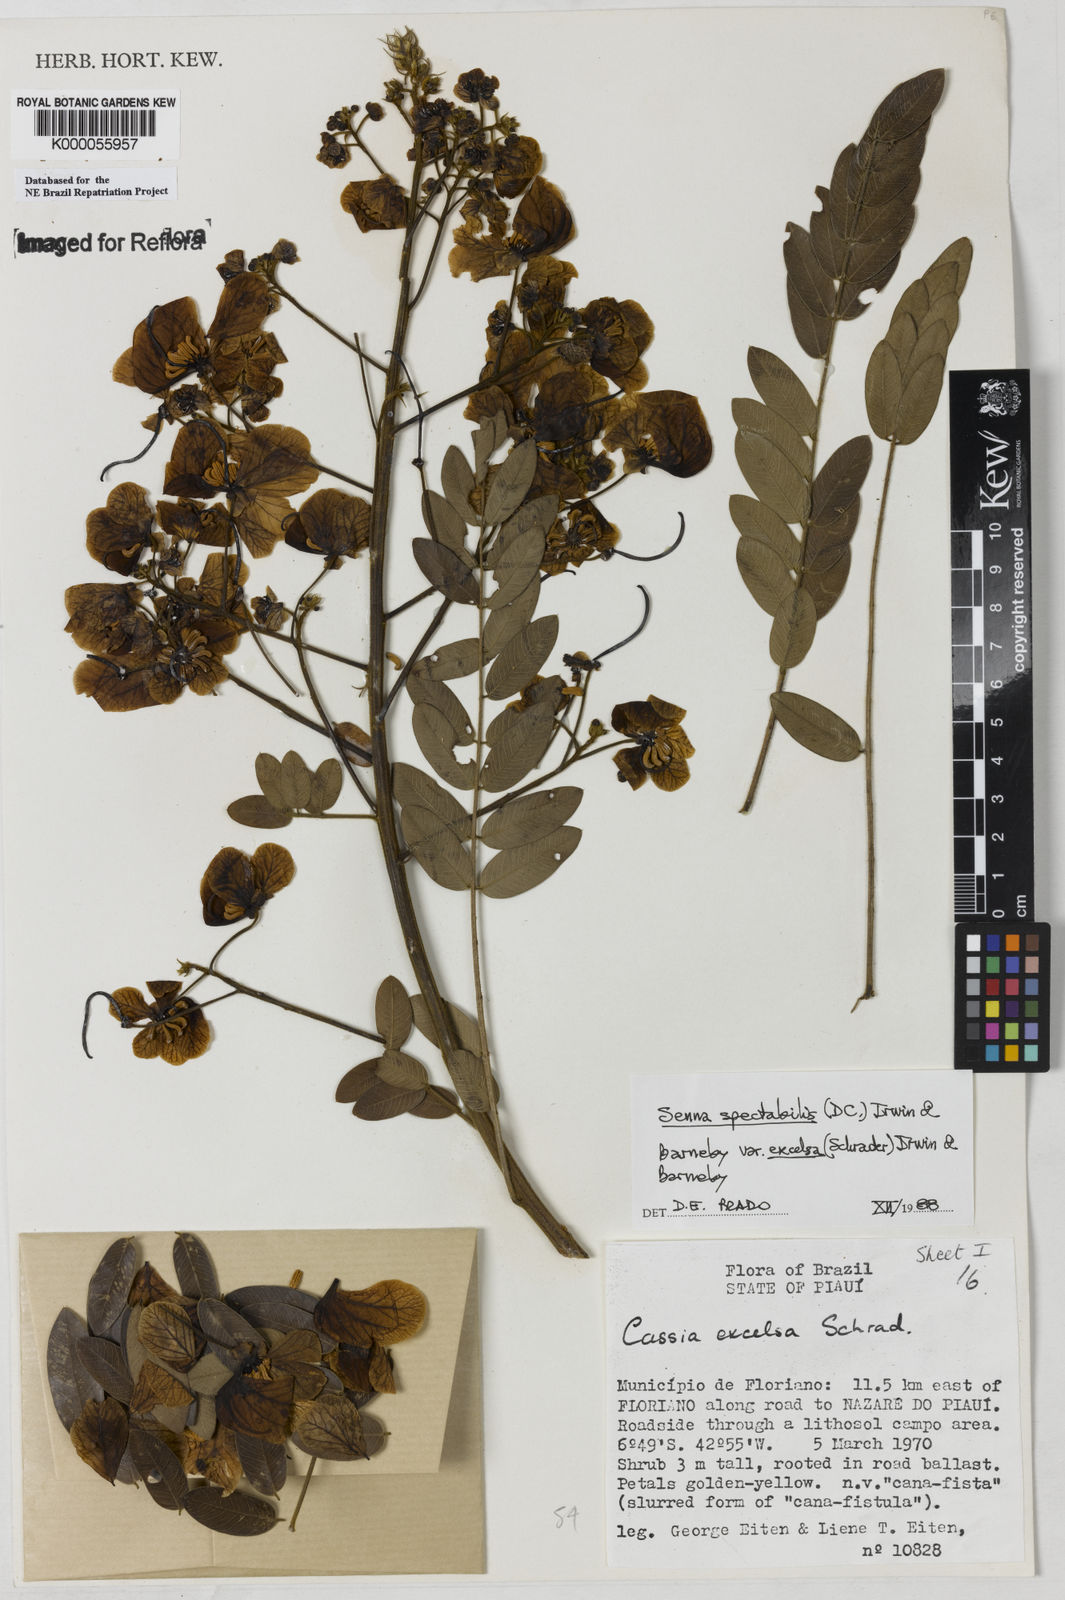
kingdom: Plantae
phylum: Tracheophyta
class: Magnoliopsida
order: Fabales
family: Fabaceae
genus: Senna
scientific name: Senna spectabilis
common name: Casia amarilla
